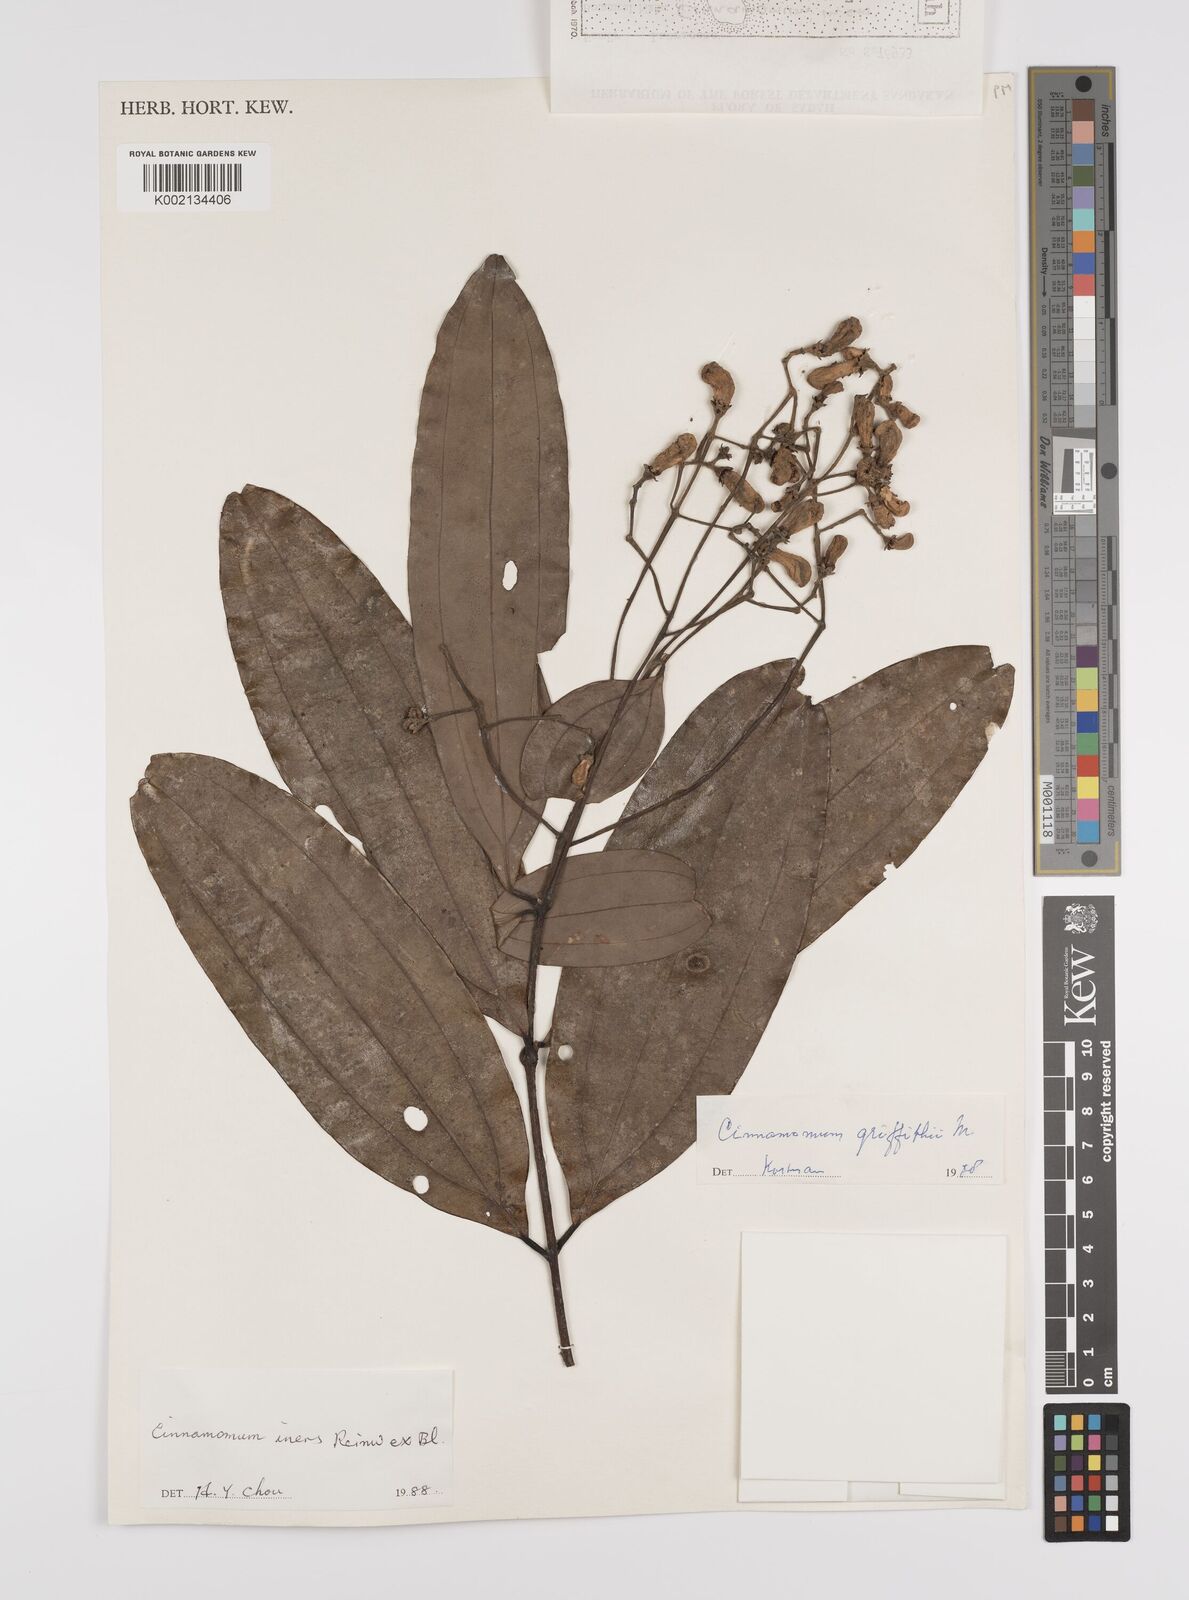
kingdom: Plantae
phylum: Tracheophyta
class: Magnoliopsida
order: Laurales
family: Lauraceae
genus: Cinnamomum
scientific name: Cinnamomum iners
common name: Wild cinnamon
